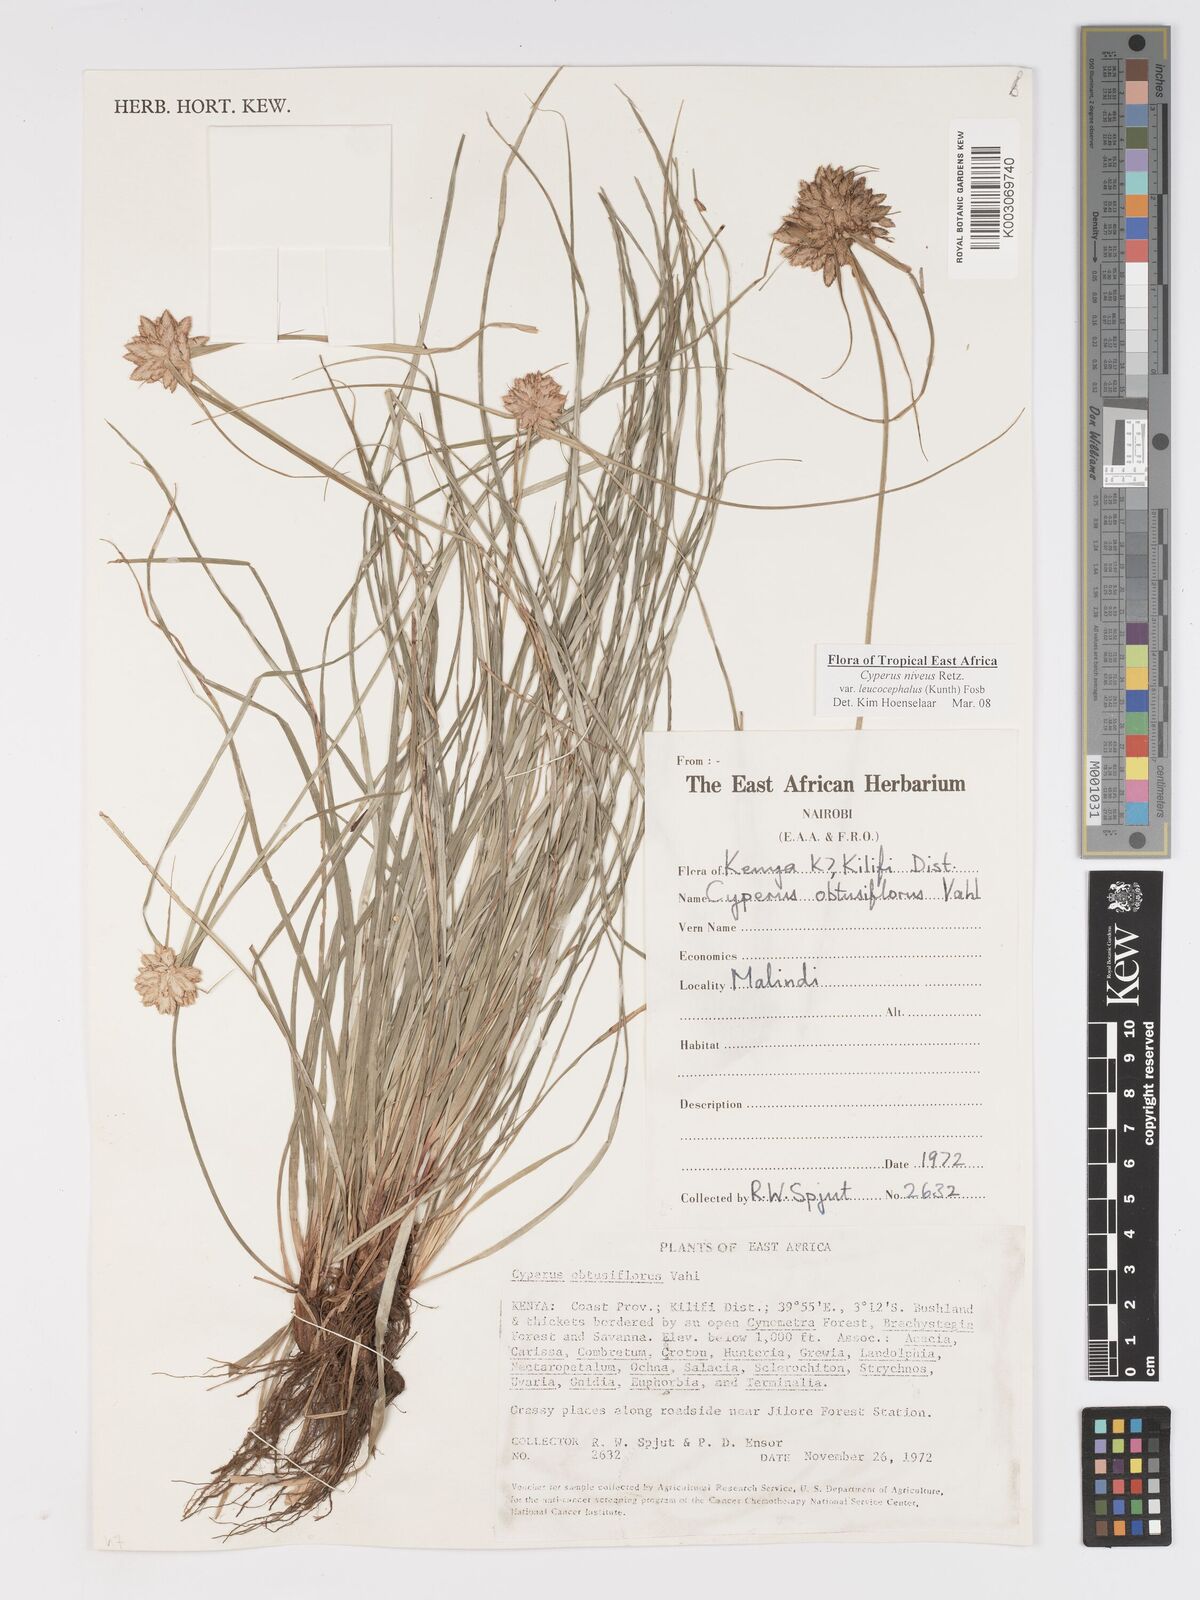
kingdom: Plantae
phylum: Tracheophyta
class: Liliopsida
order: Poales
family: Cyperaceae
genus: Cyperus
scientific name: Cyperus niveus
